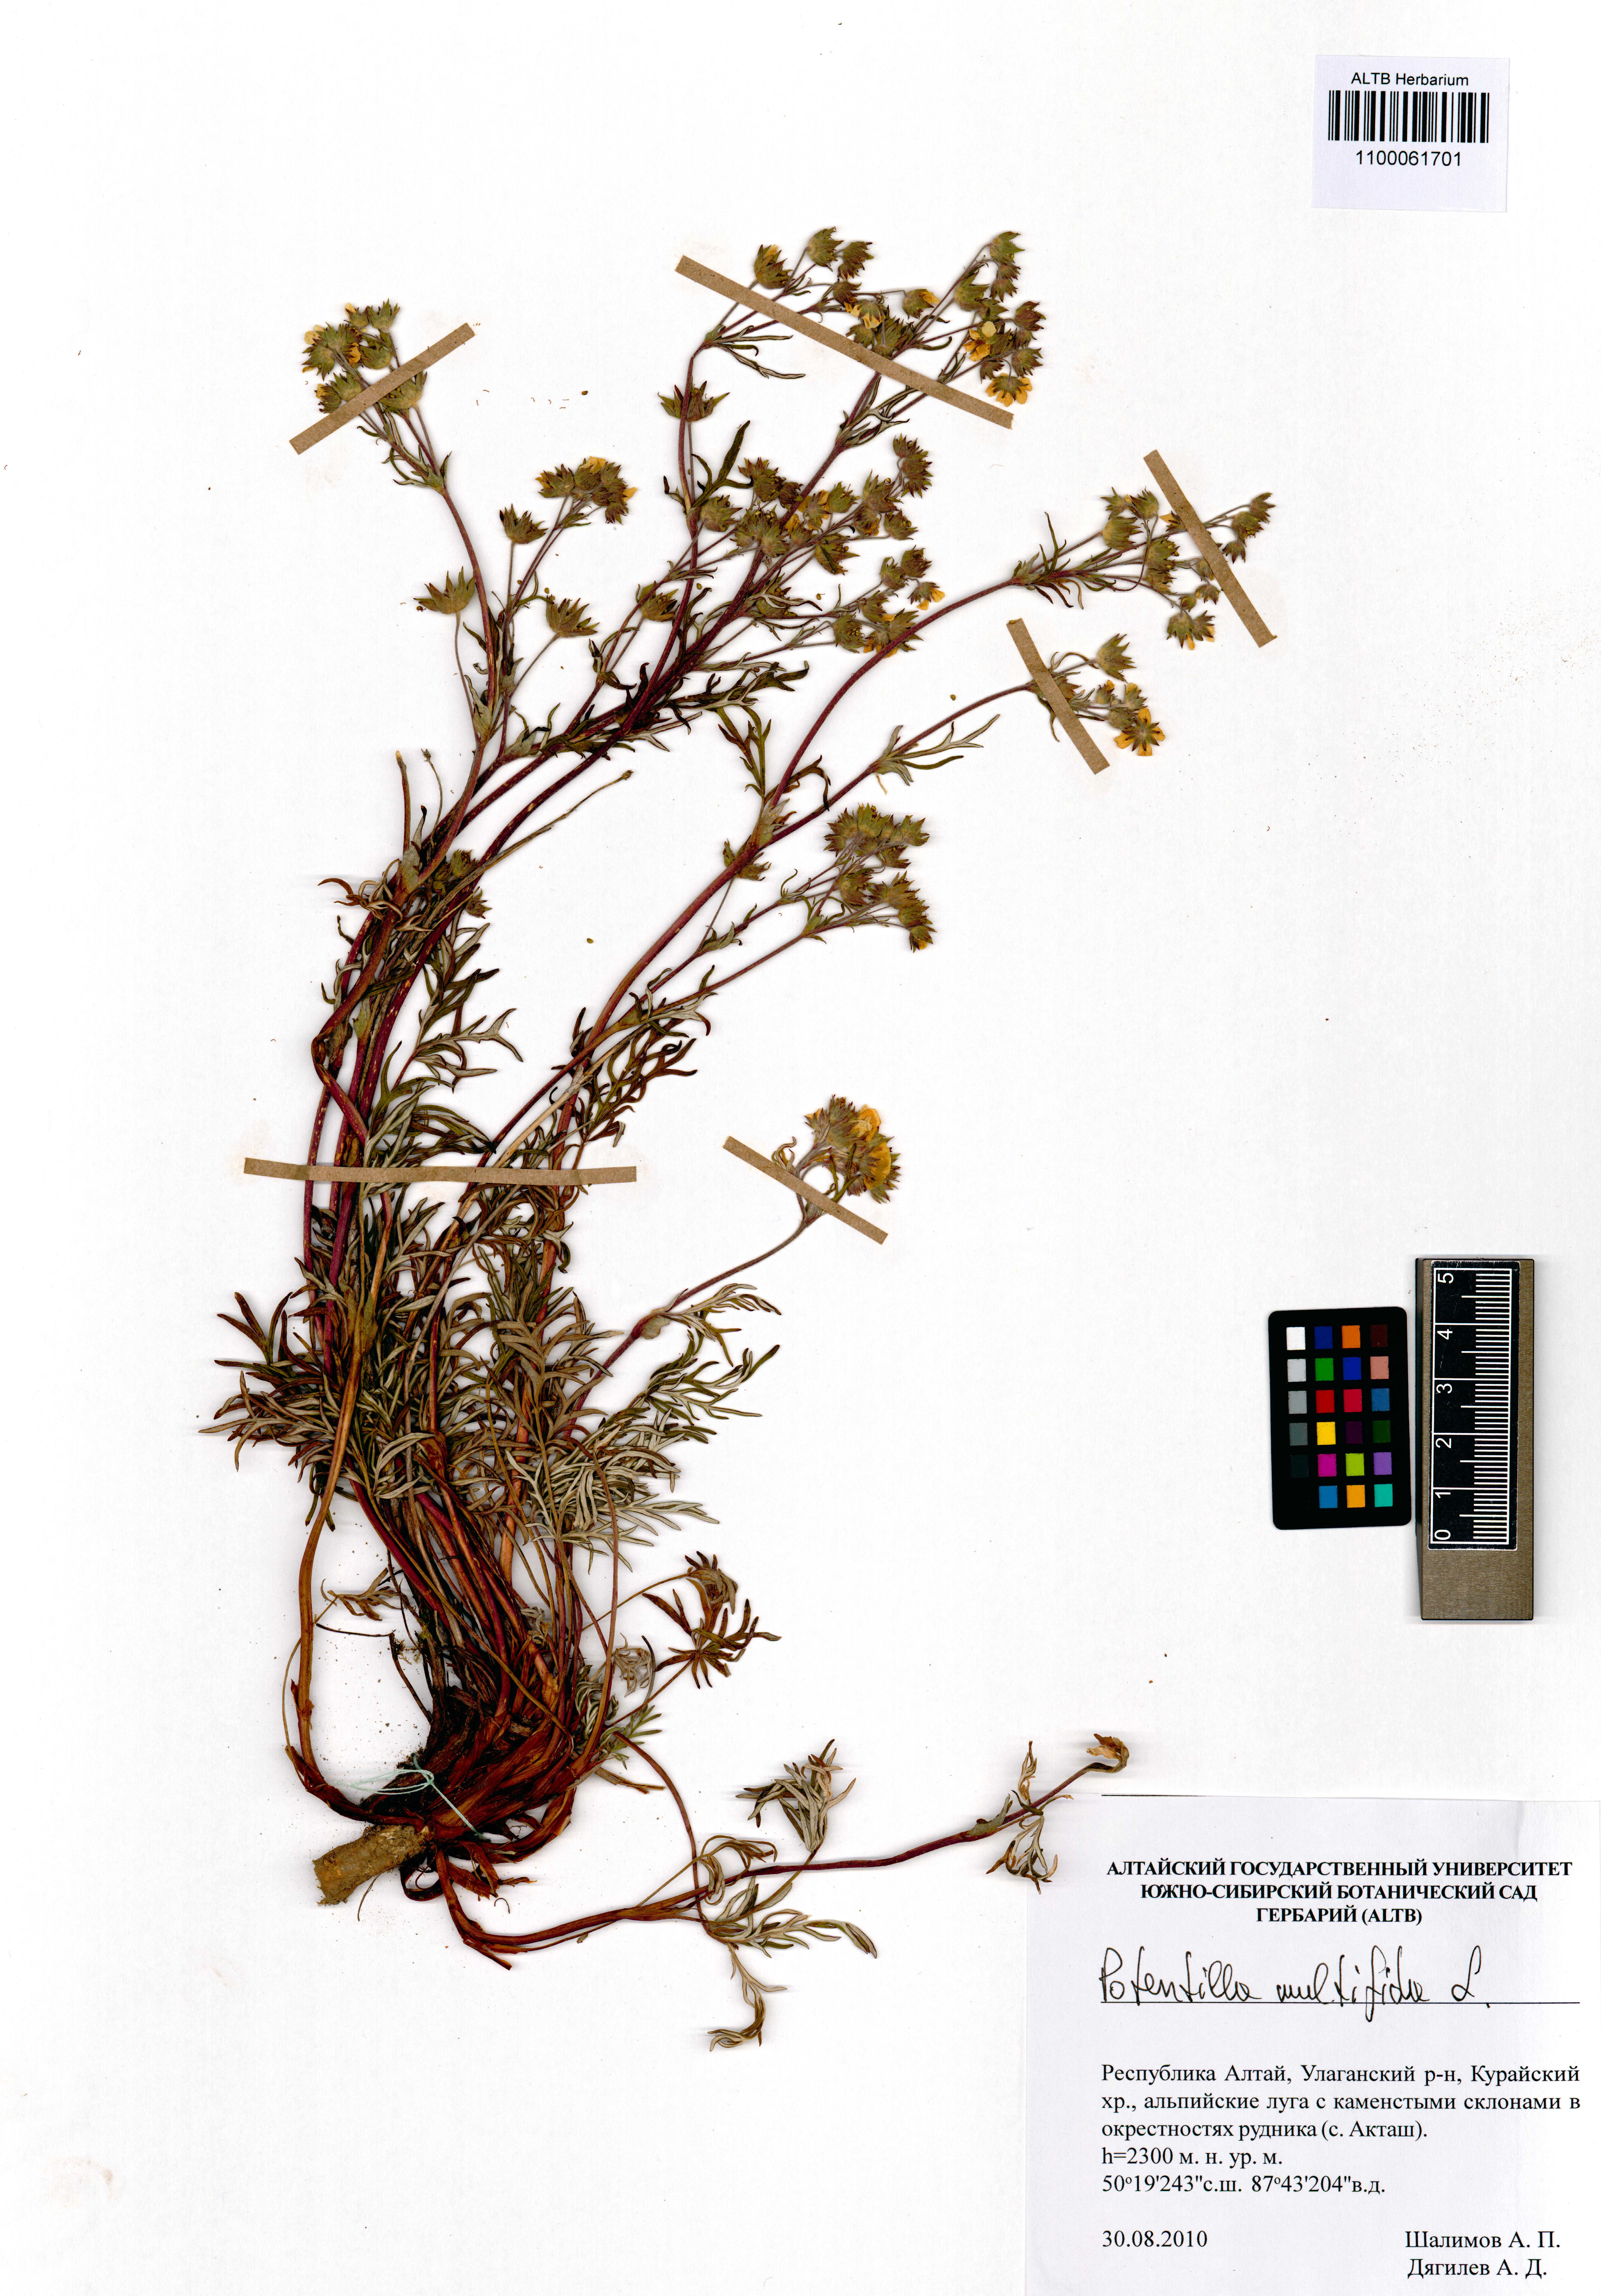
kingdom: Plantae
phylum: Tracheophyta
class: Magnoliopsida
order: Rosales
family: Rosaceae
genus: Potentilla
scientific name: Potentilla multifida
